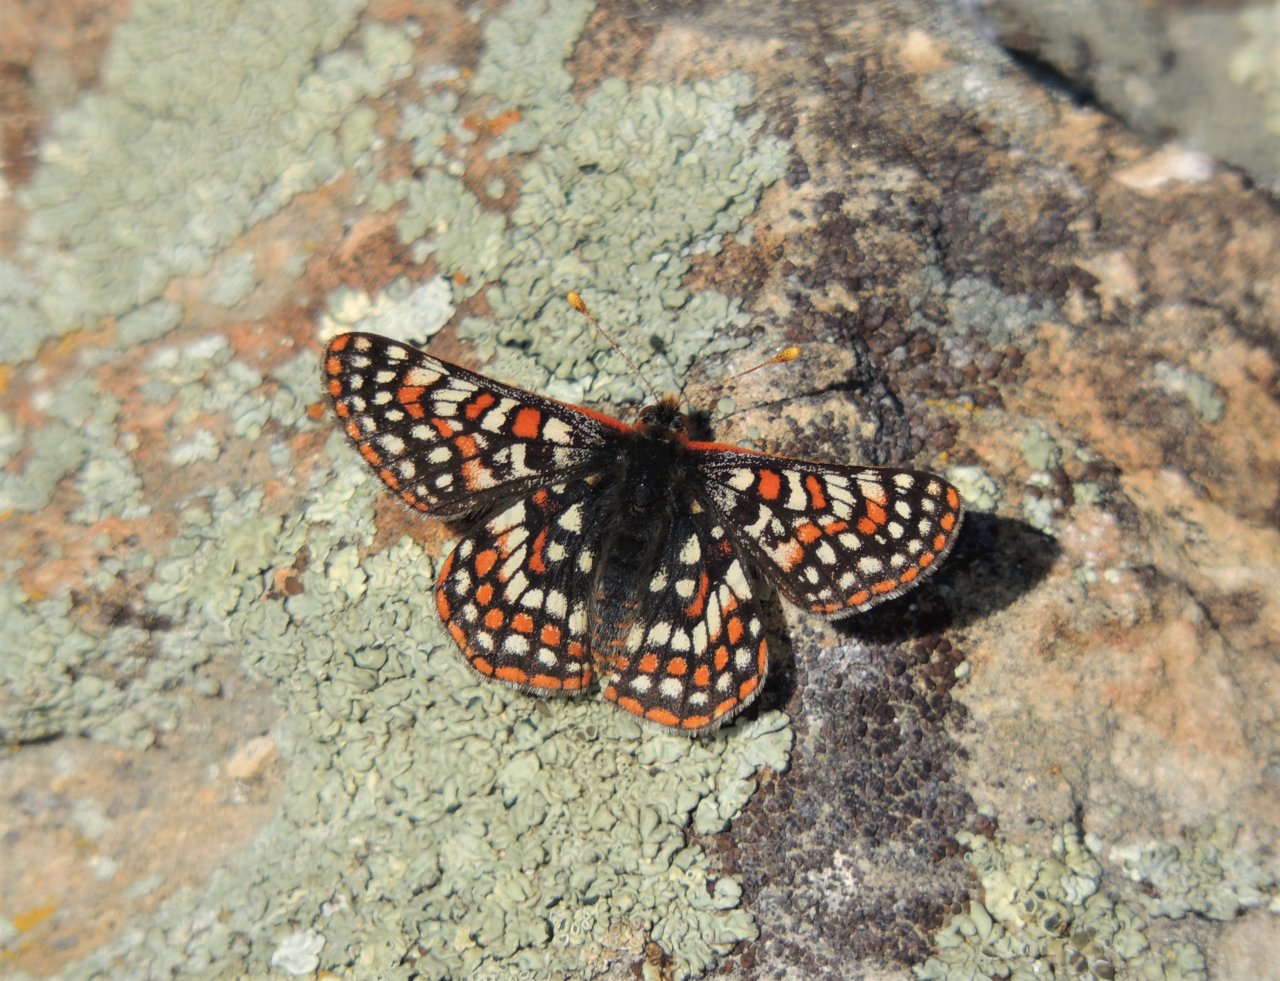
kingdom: Animalia
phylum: Arthropoda
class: Insecta
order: Lepidoptera
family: Nymphalidae
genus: Occidryas
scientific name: Occidryas editha
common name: Edith's Checkerspot
